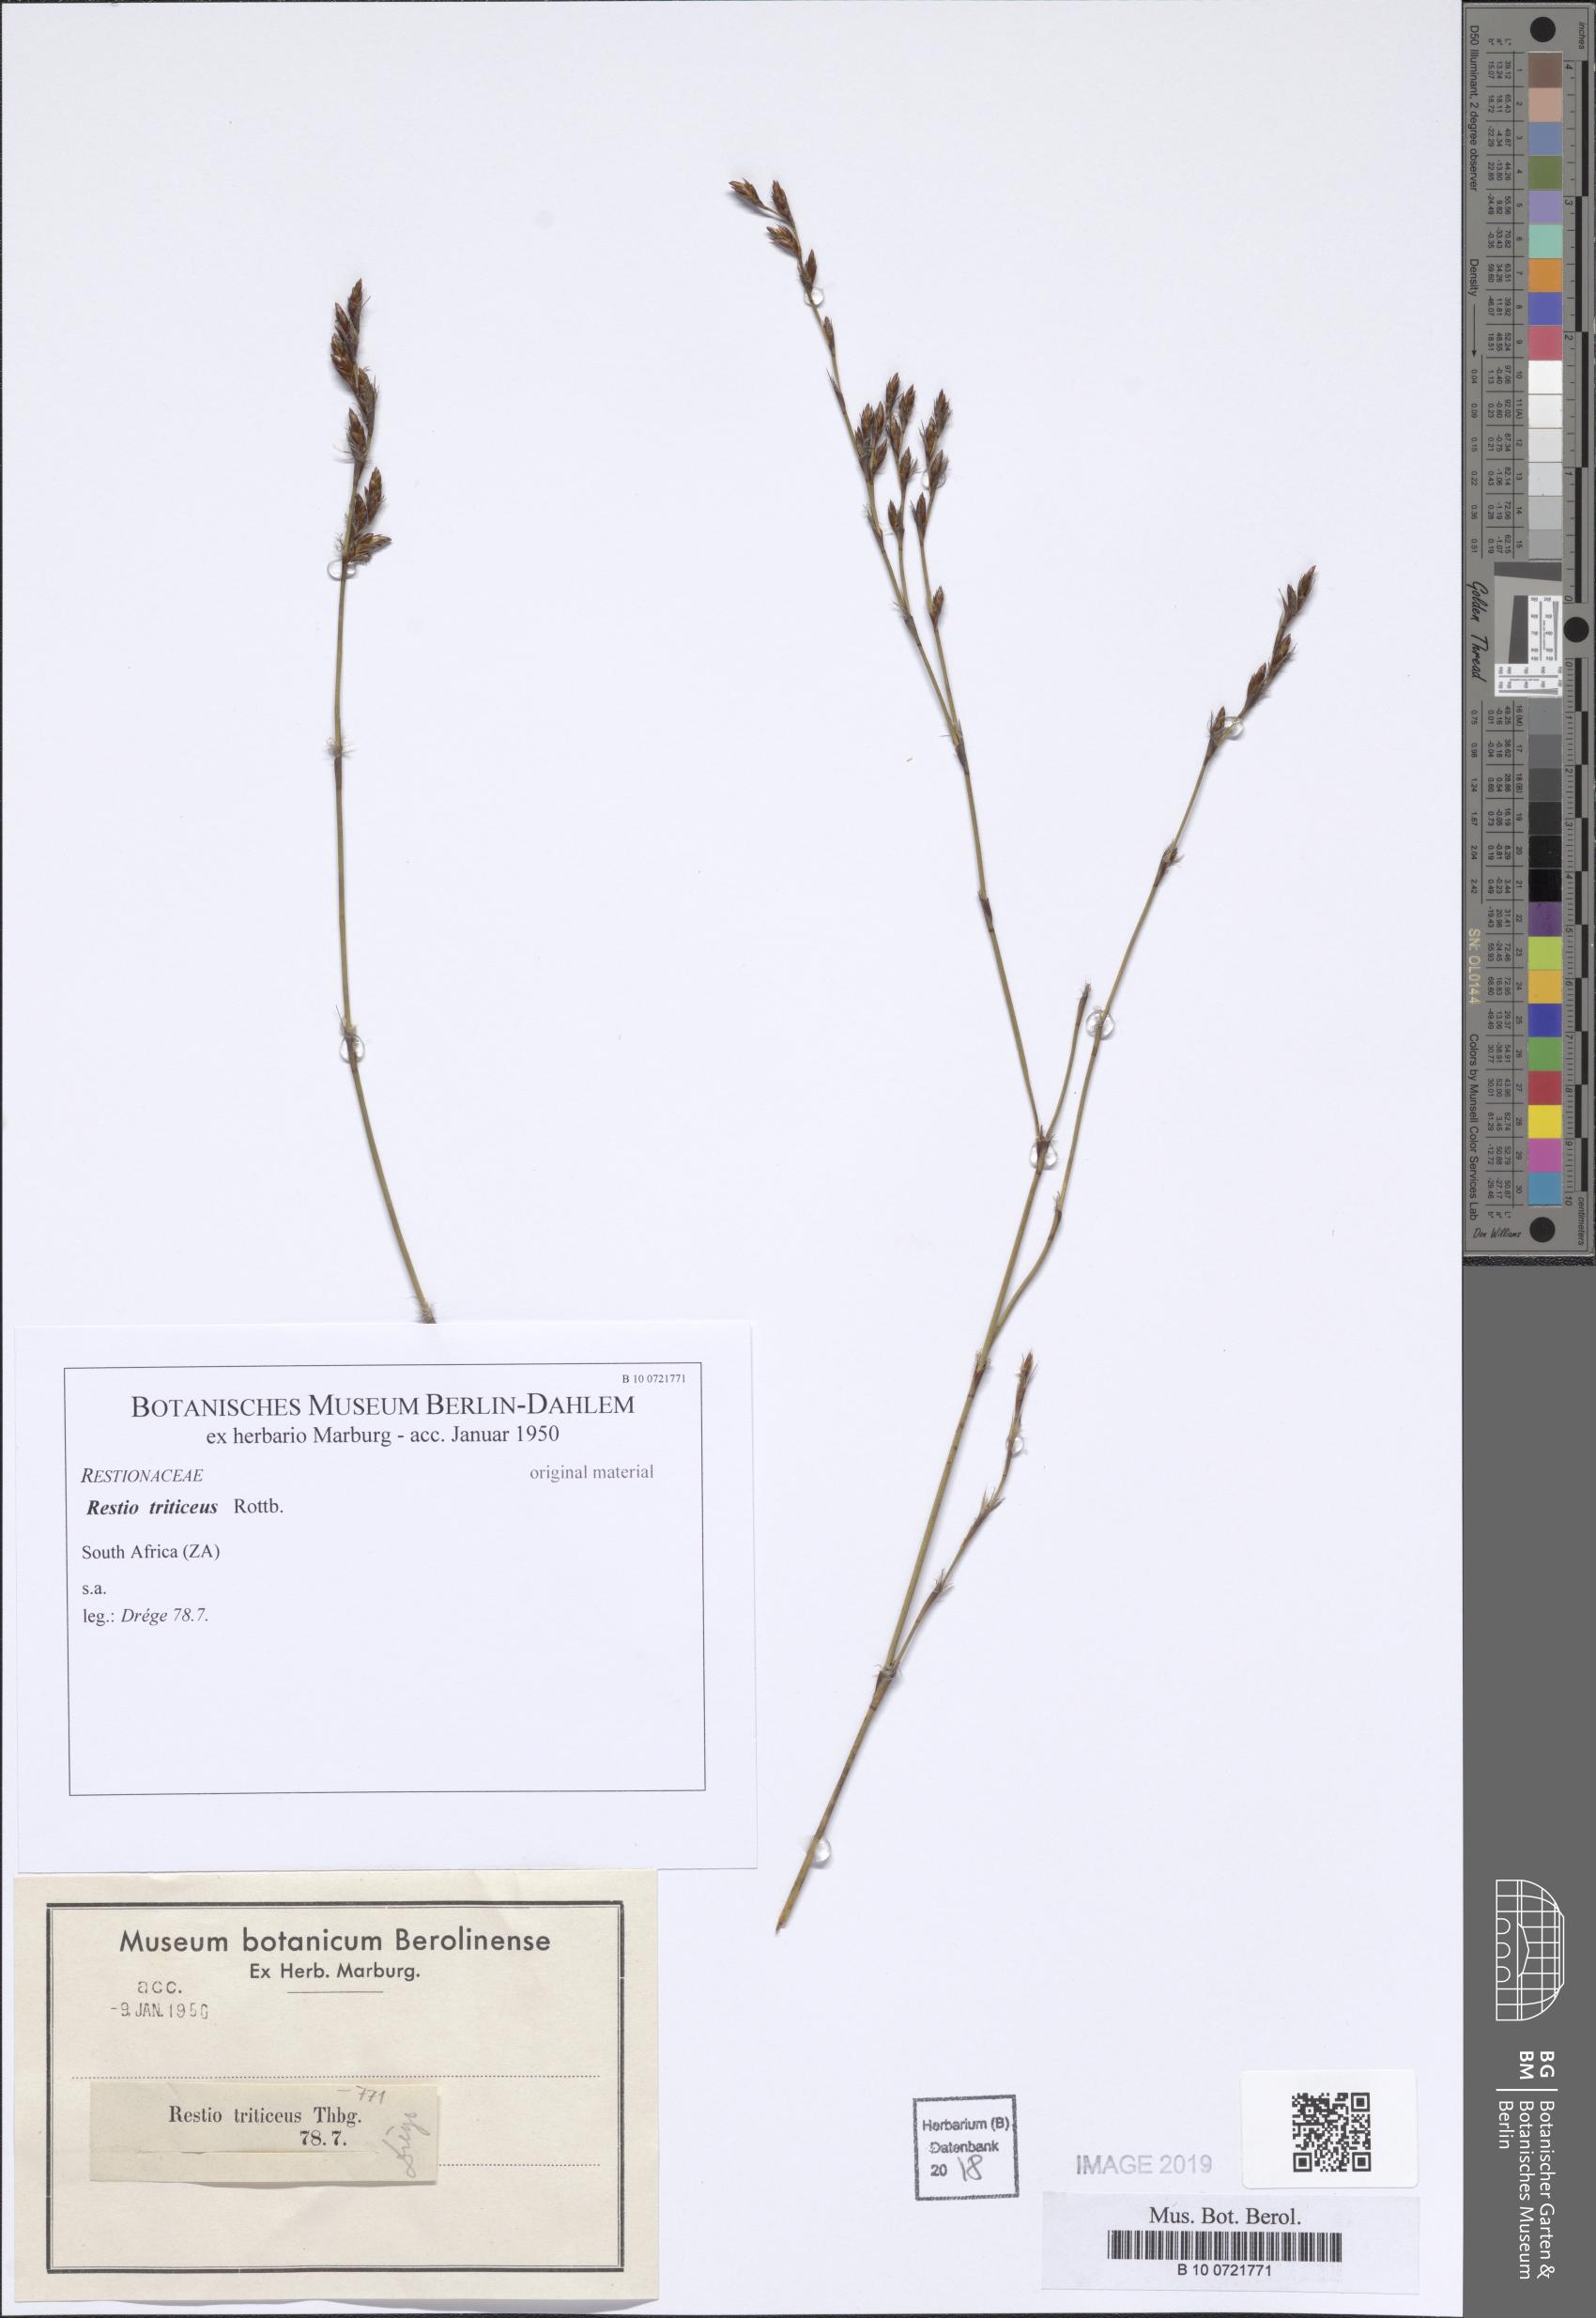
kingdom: Plantae
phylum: Tracheophyta
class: Liliopsida
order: Poales
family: Restionaceae
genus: Restio
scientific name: Restio triticeus
